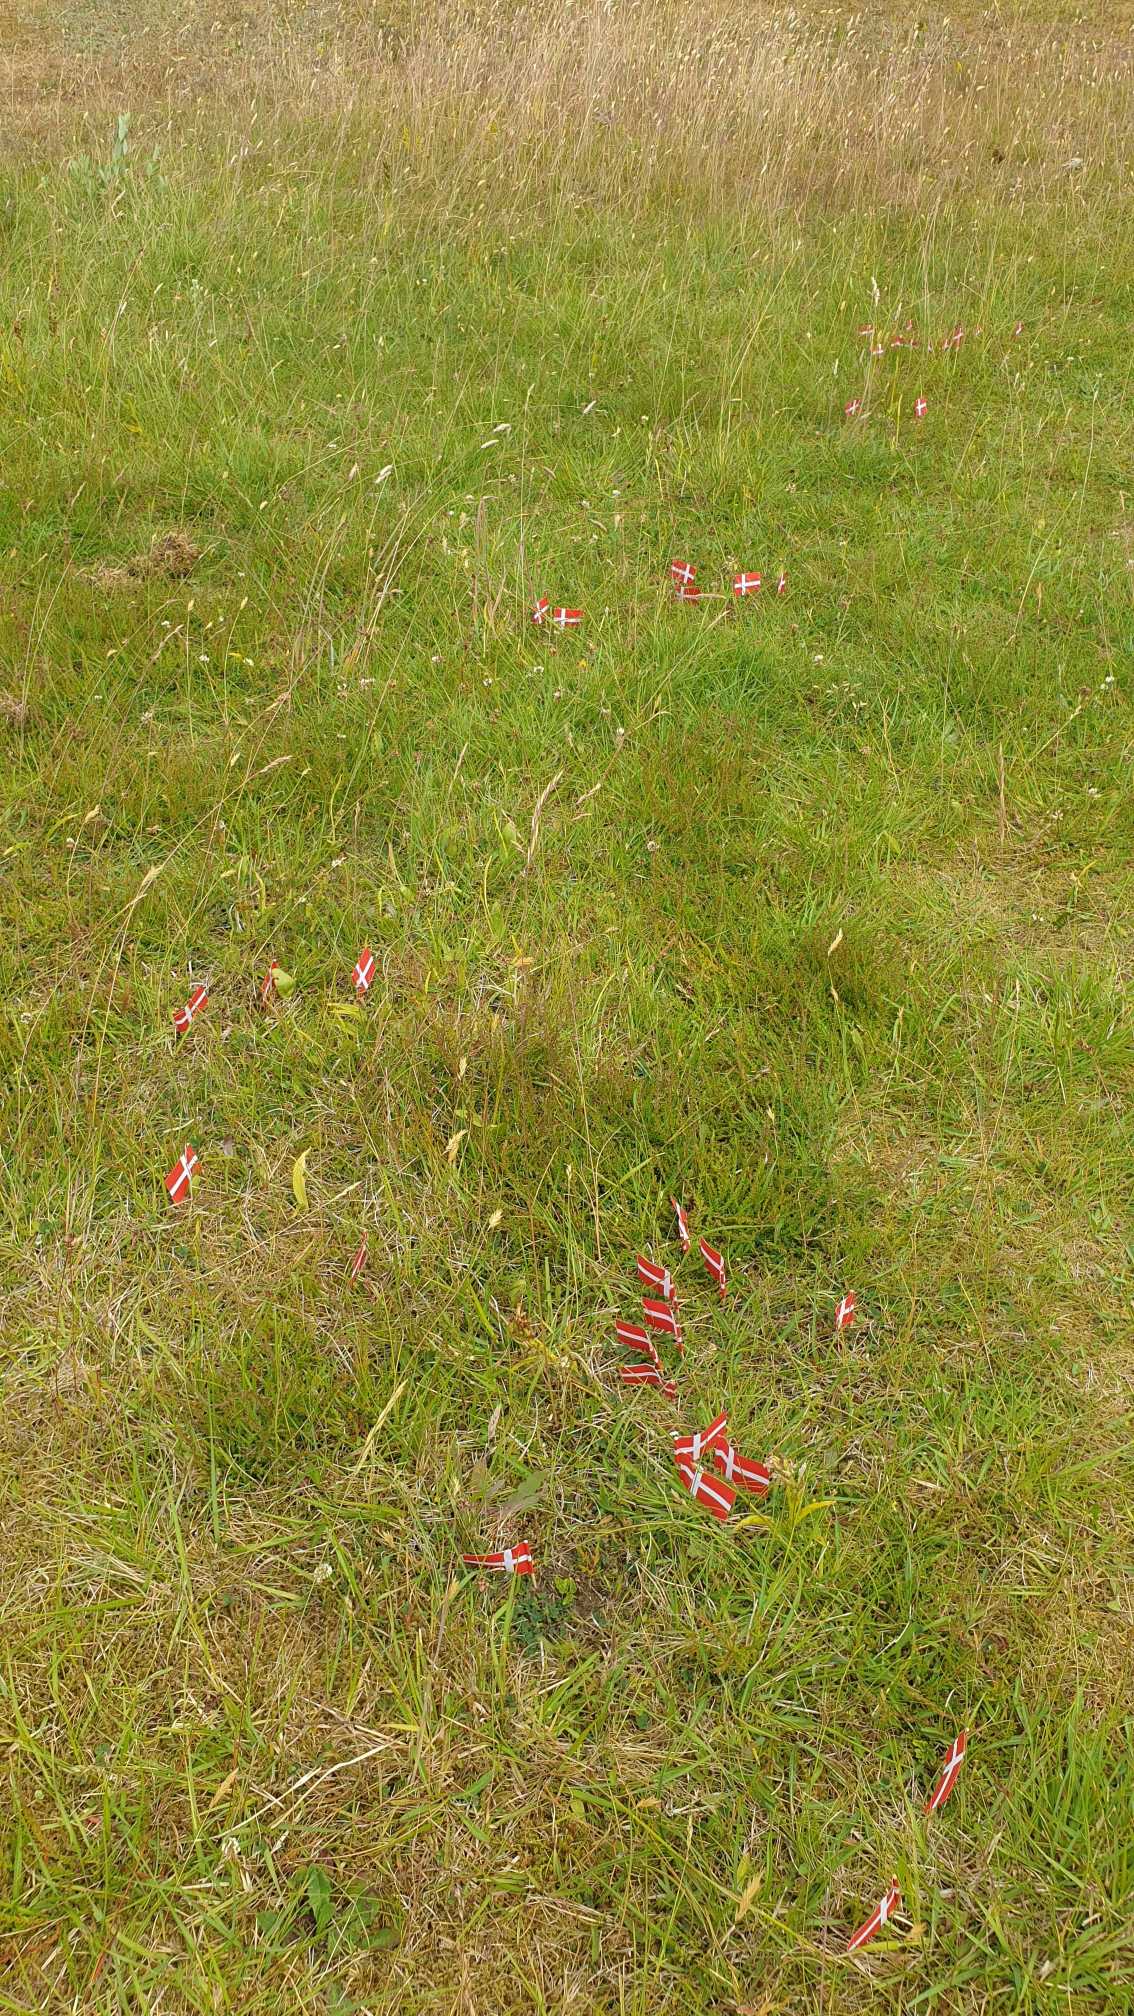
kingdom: Plantae
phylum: Tracheophyta
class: Polypodiopsida
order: Ophioglossales
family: Ophioglossaceae
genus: Sceptridium
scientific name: Sceptridium multifidum
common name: Stilk-månerude
